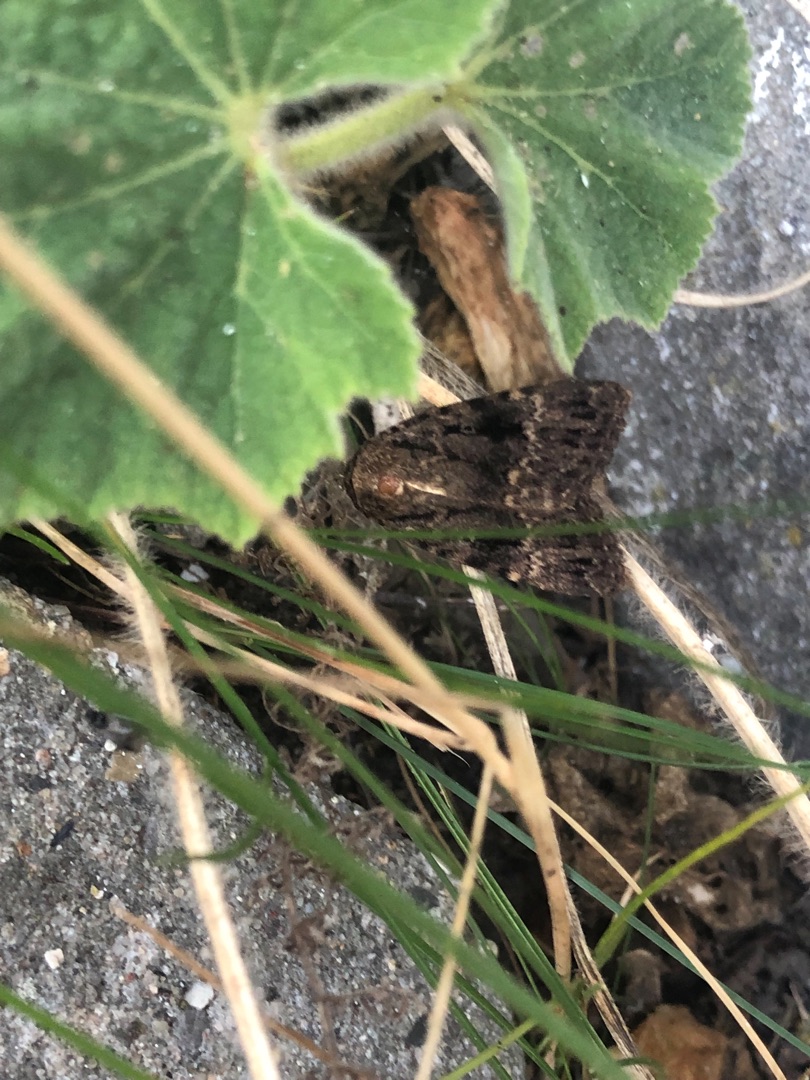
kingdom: Animalia
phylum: Arthropoda
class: Insecta
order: Lepidoptera
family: Noctuidae
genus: Amphipyra
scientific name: Amphipyra pyramidea
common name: Pyramideugle
